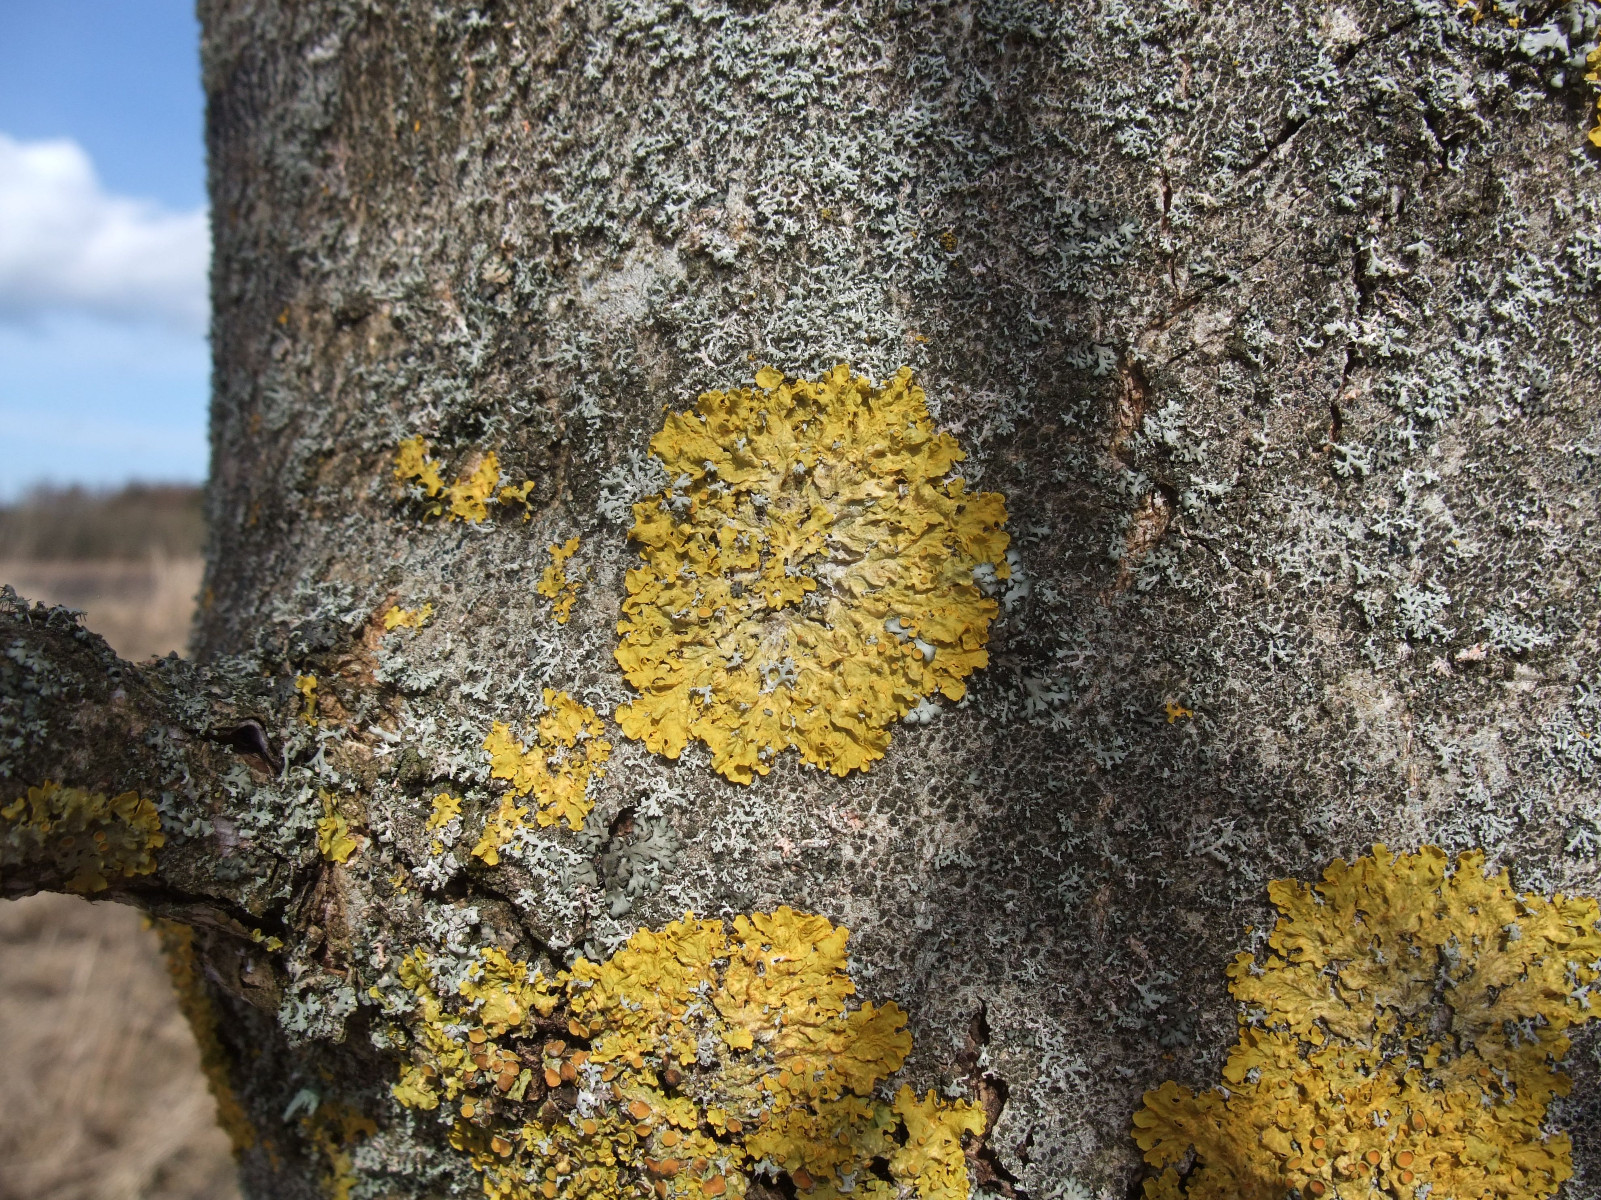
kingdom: Fungi
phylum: Ascomycota
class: Lecanoromycetes
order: Teloschistales
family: Teloschistaceae
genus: Xanthoria
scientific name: Xanthoria parietina
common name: almindelig væggelav
